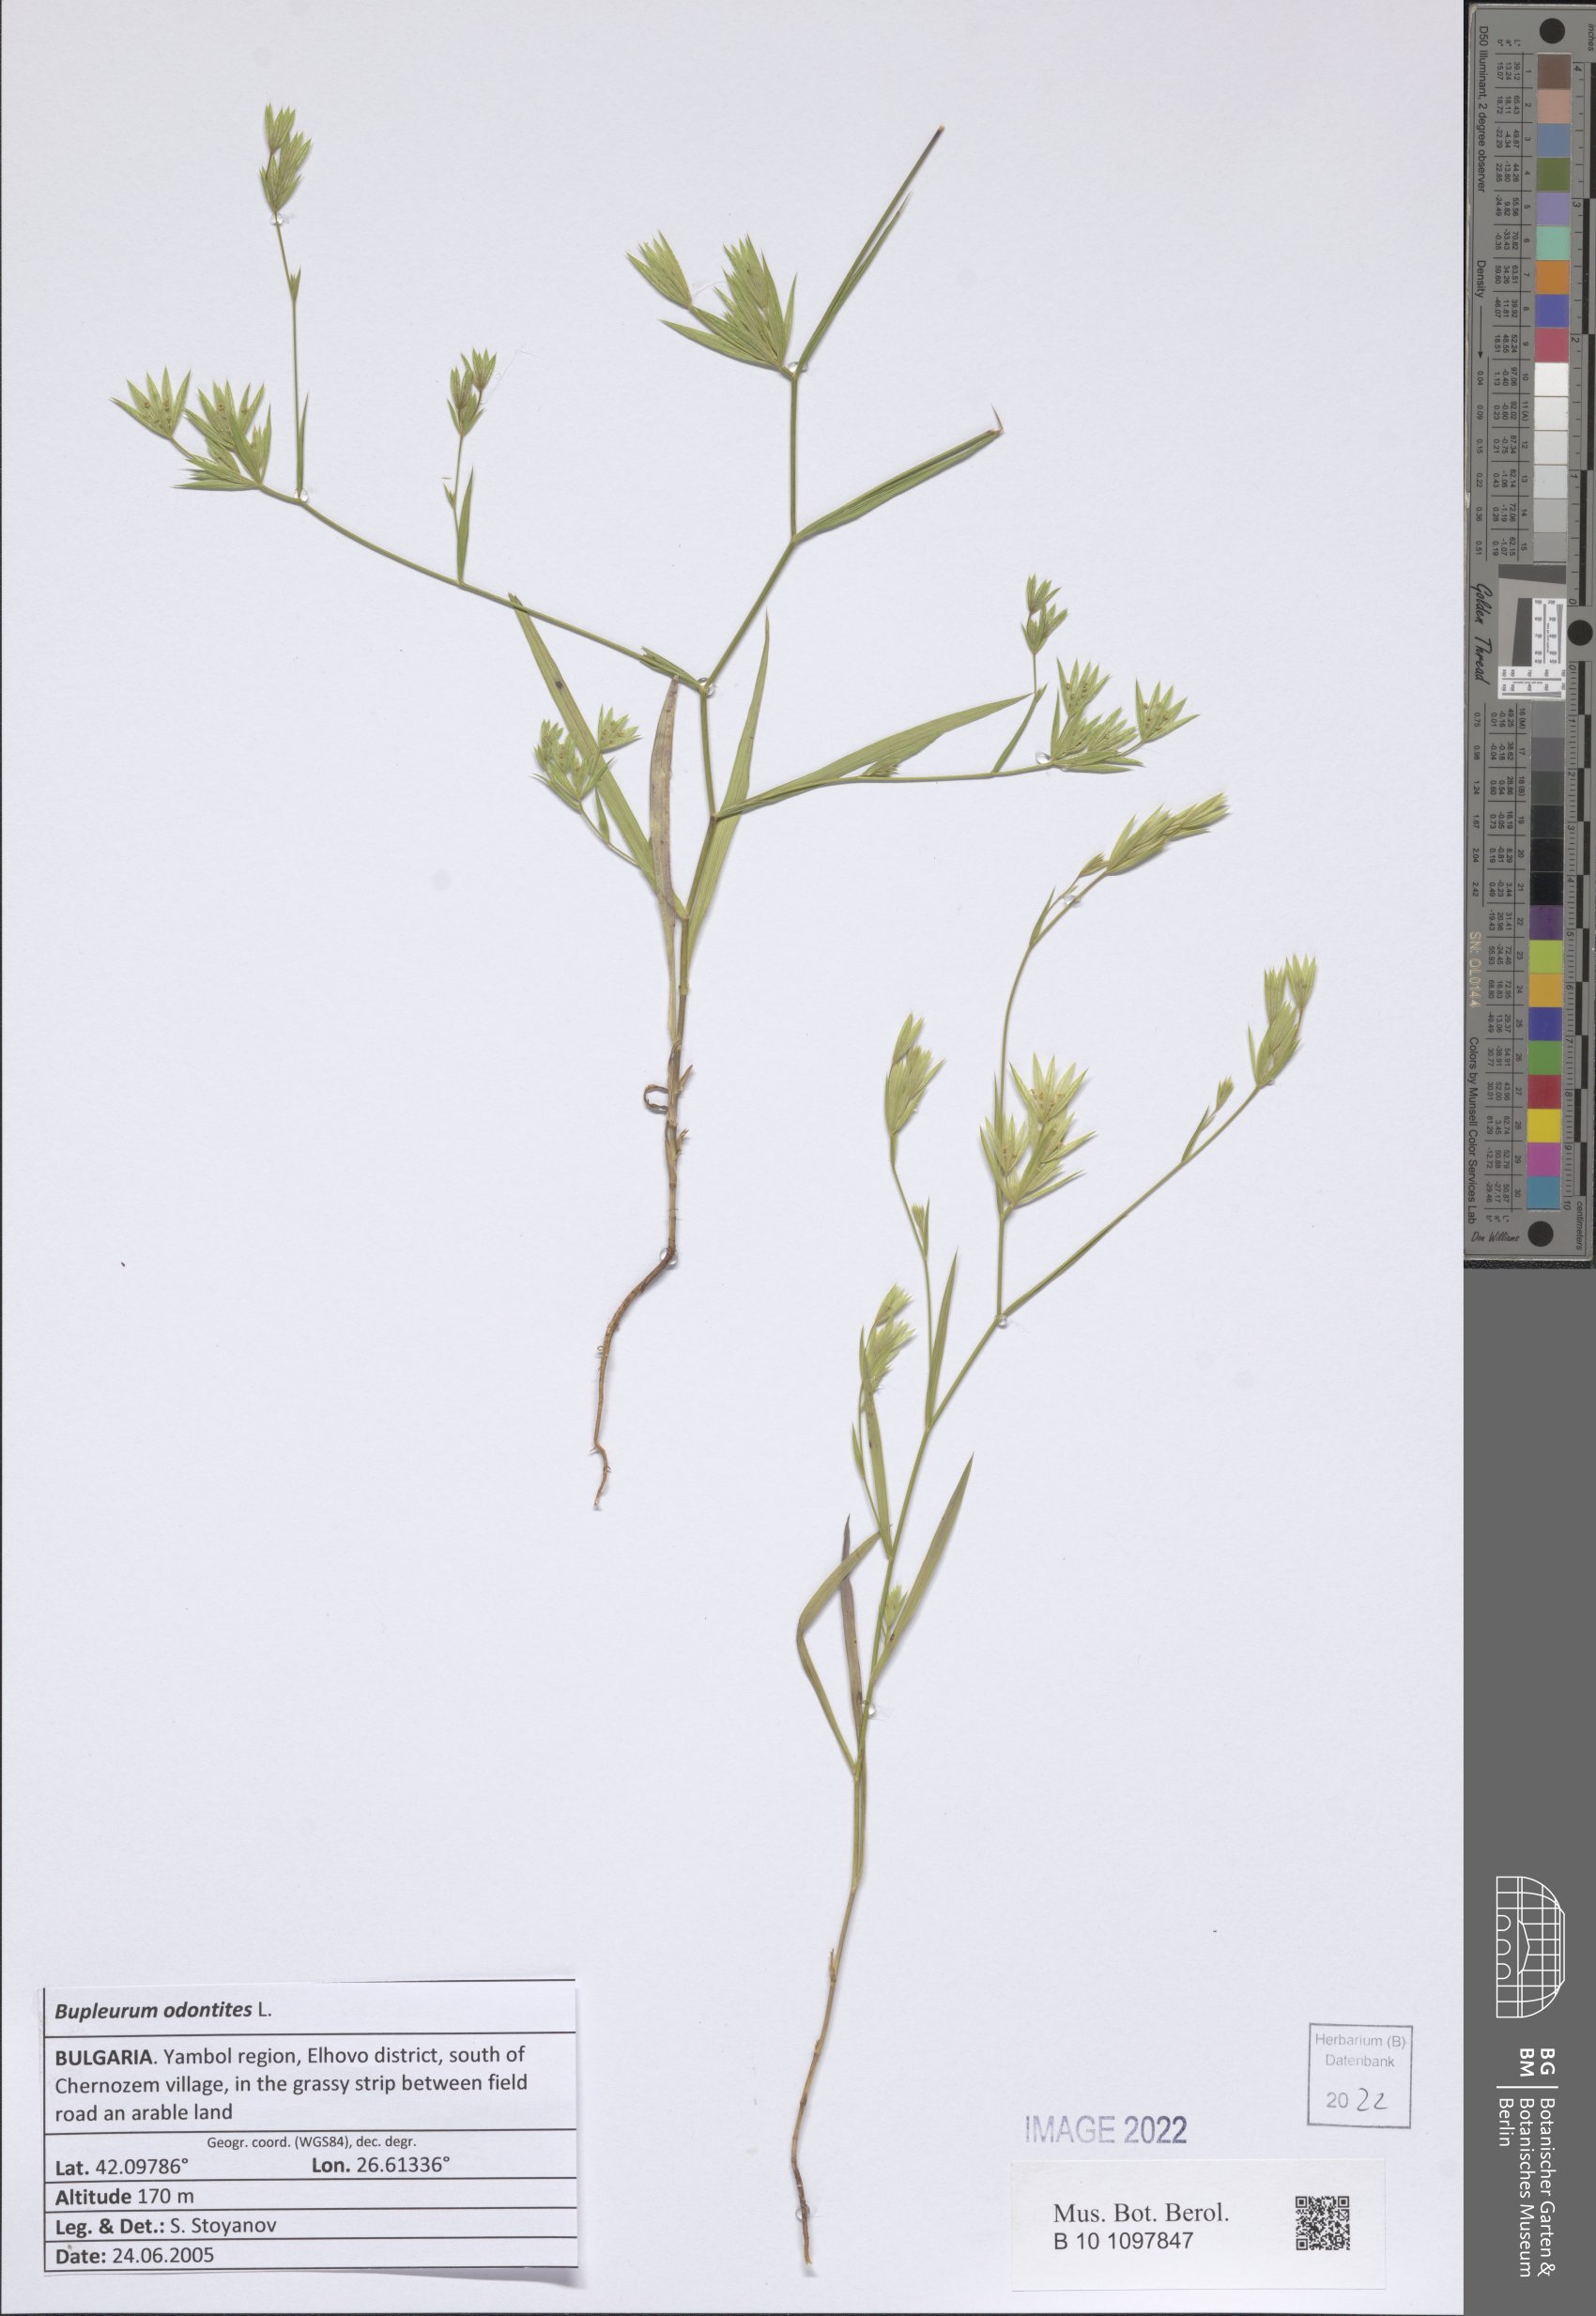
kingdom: Plantae
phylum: Tracheophyta
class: Magnoliopsida
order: Apiales
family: Apiaceae
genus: Bupleurum
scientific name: Bupleurum odontites
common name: Narrowleaf thorow wax
